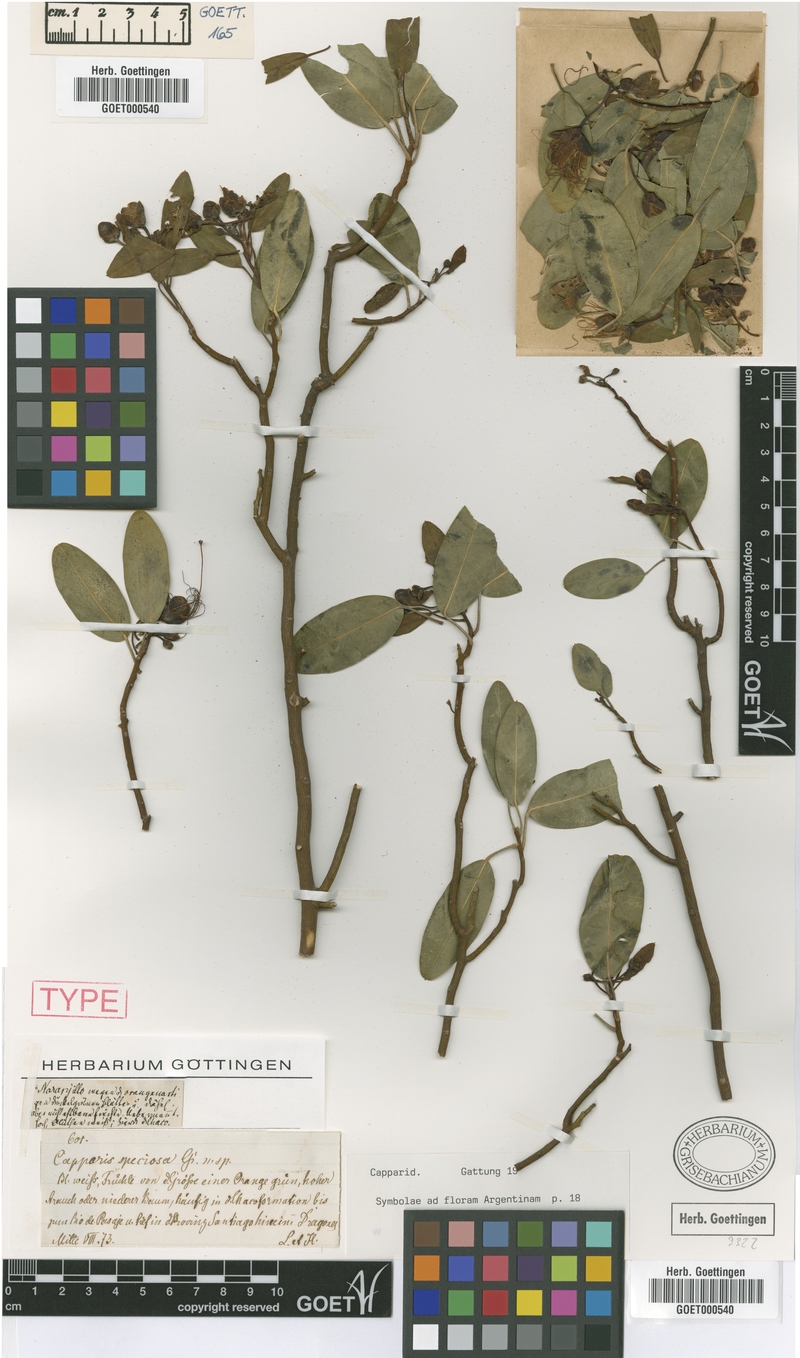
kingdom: Plantae
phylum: Tracheophyta
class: Magnoliopsida
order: Brassicales
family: Capparaceae
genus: Anisocapparis
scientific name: Anisocapparis speciosa
